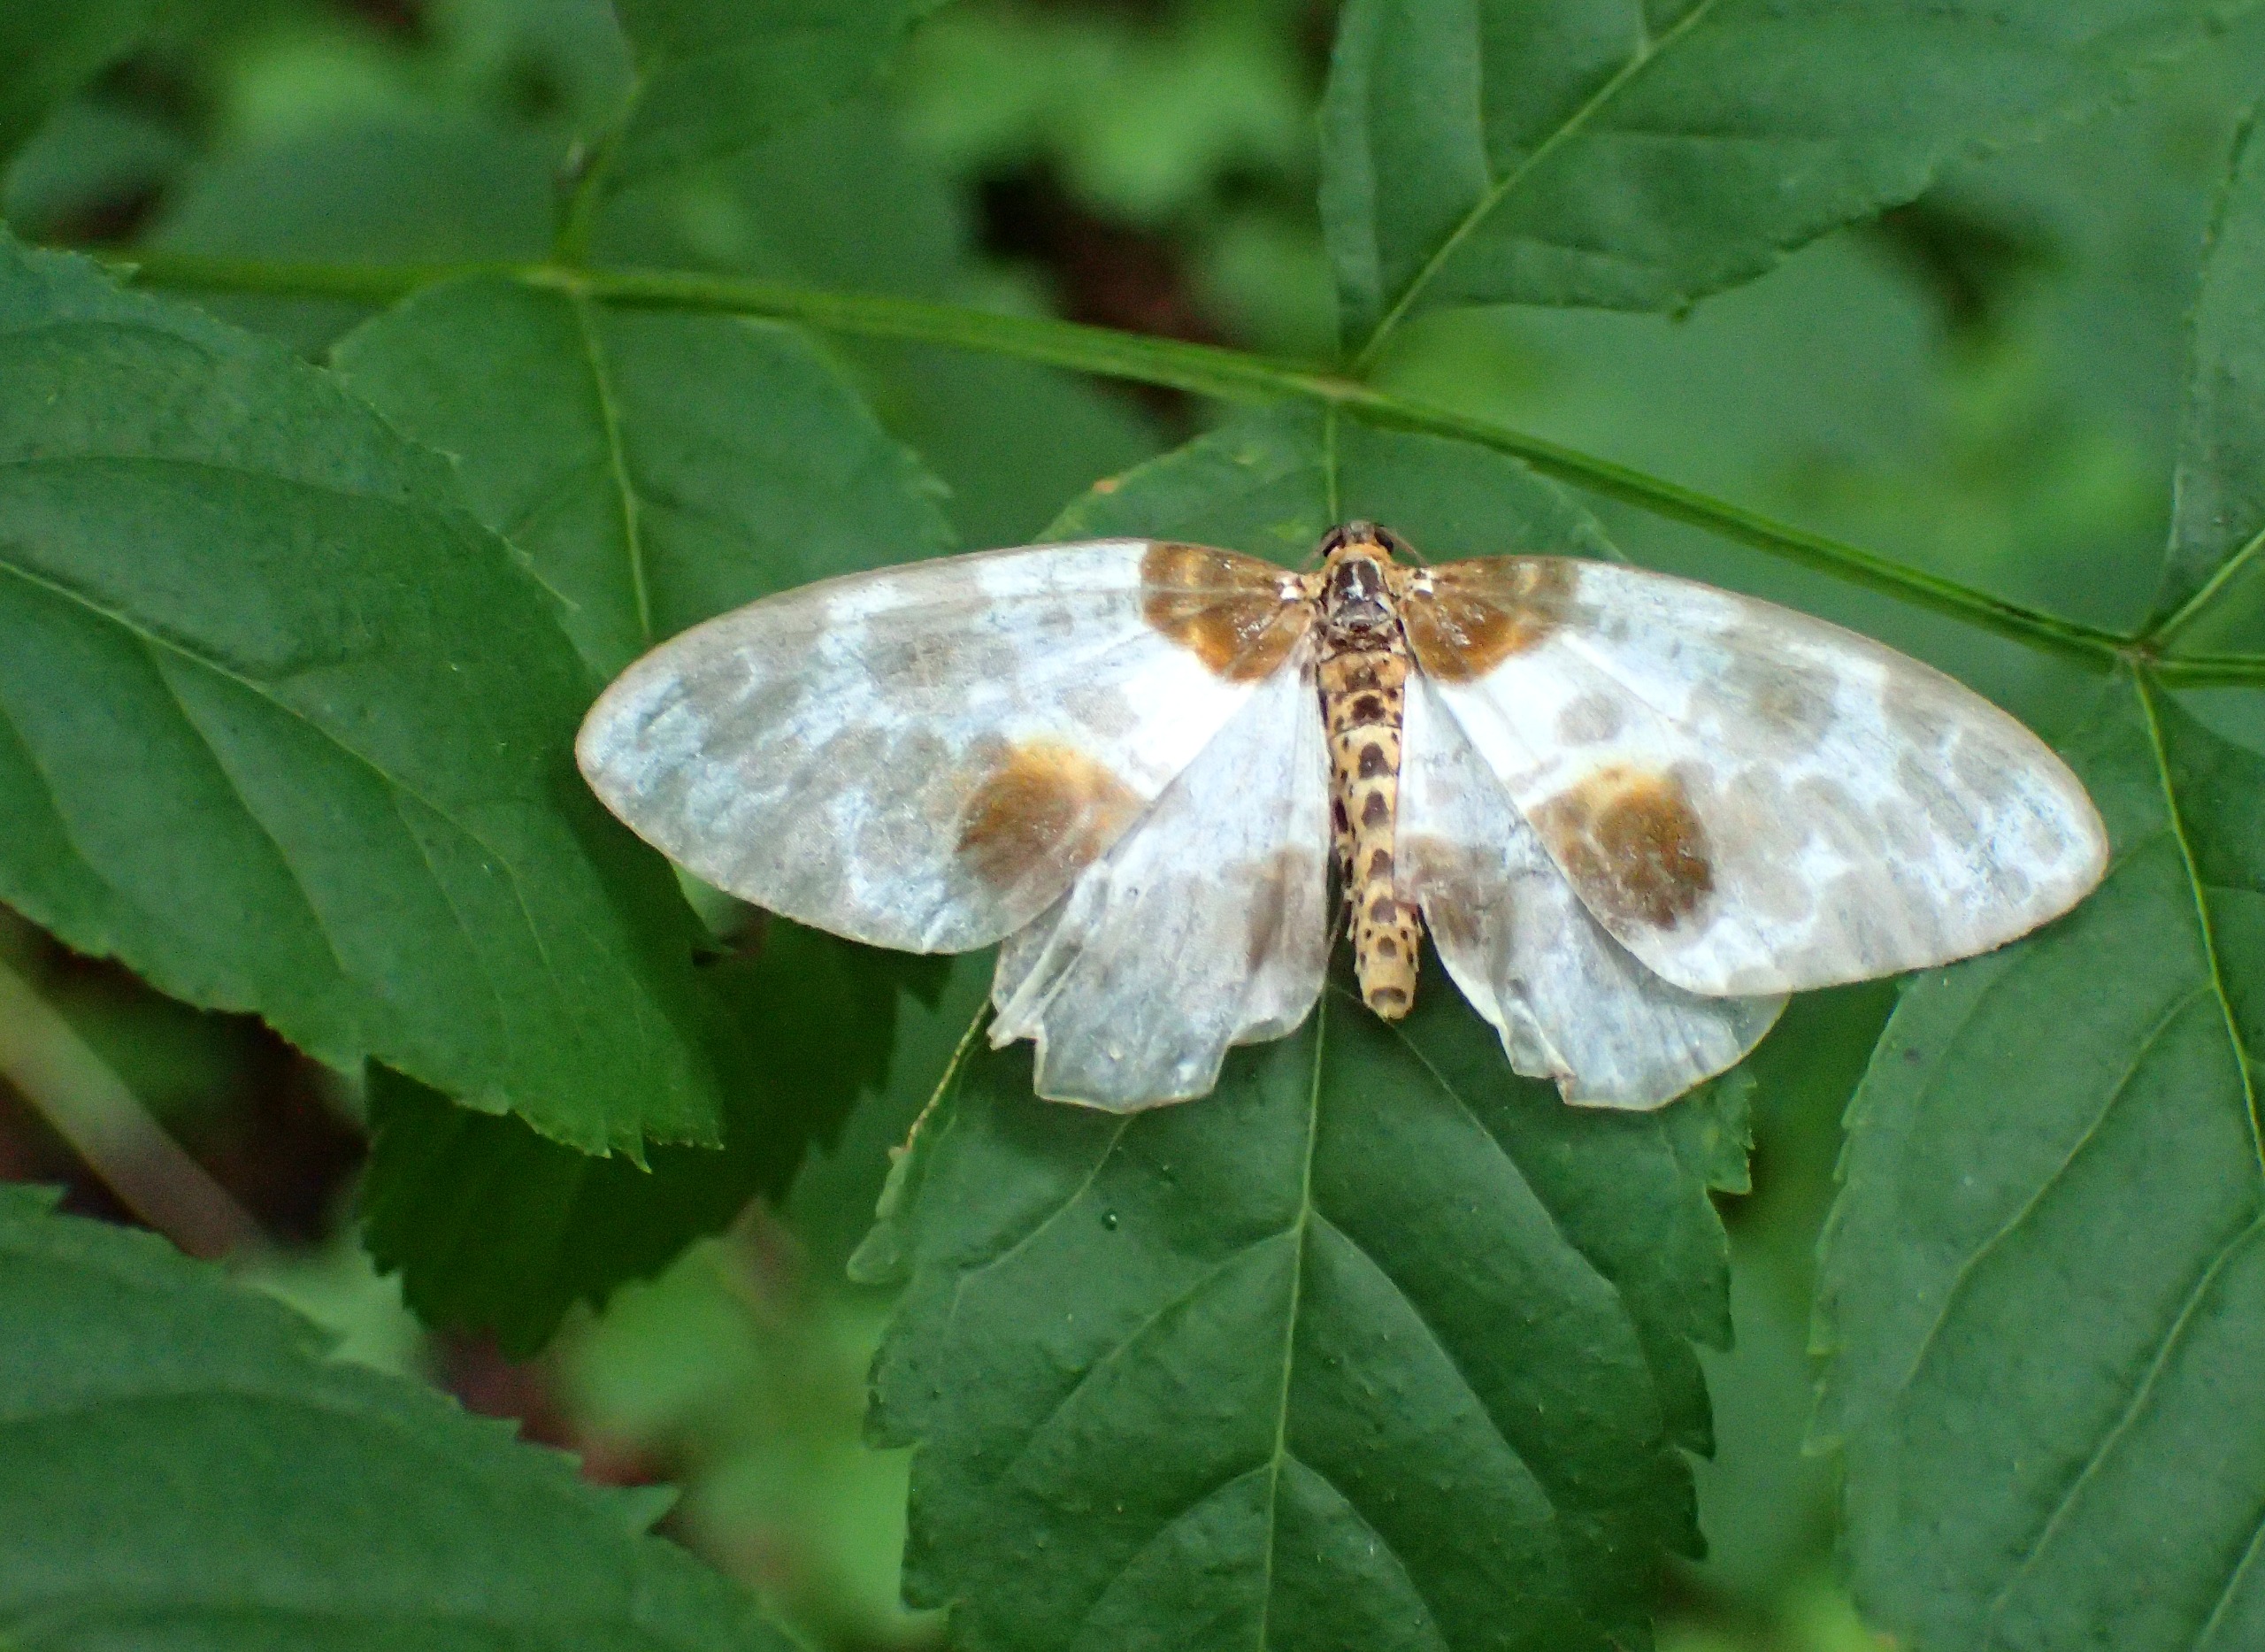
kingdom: Animalia
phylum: Arthropoda
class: Insecta
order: Lepidoptera
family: Geometridae
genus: Abraxas
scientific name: Abraxas sylvata
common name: Elmemåler
